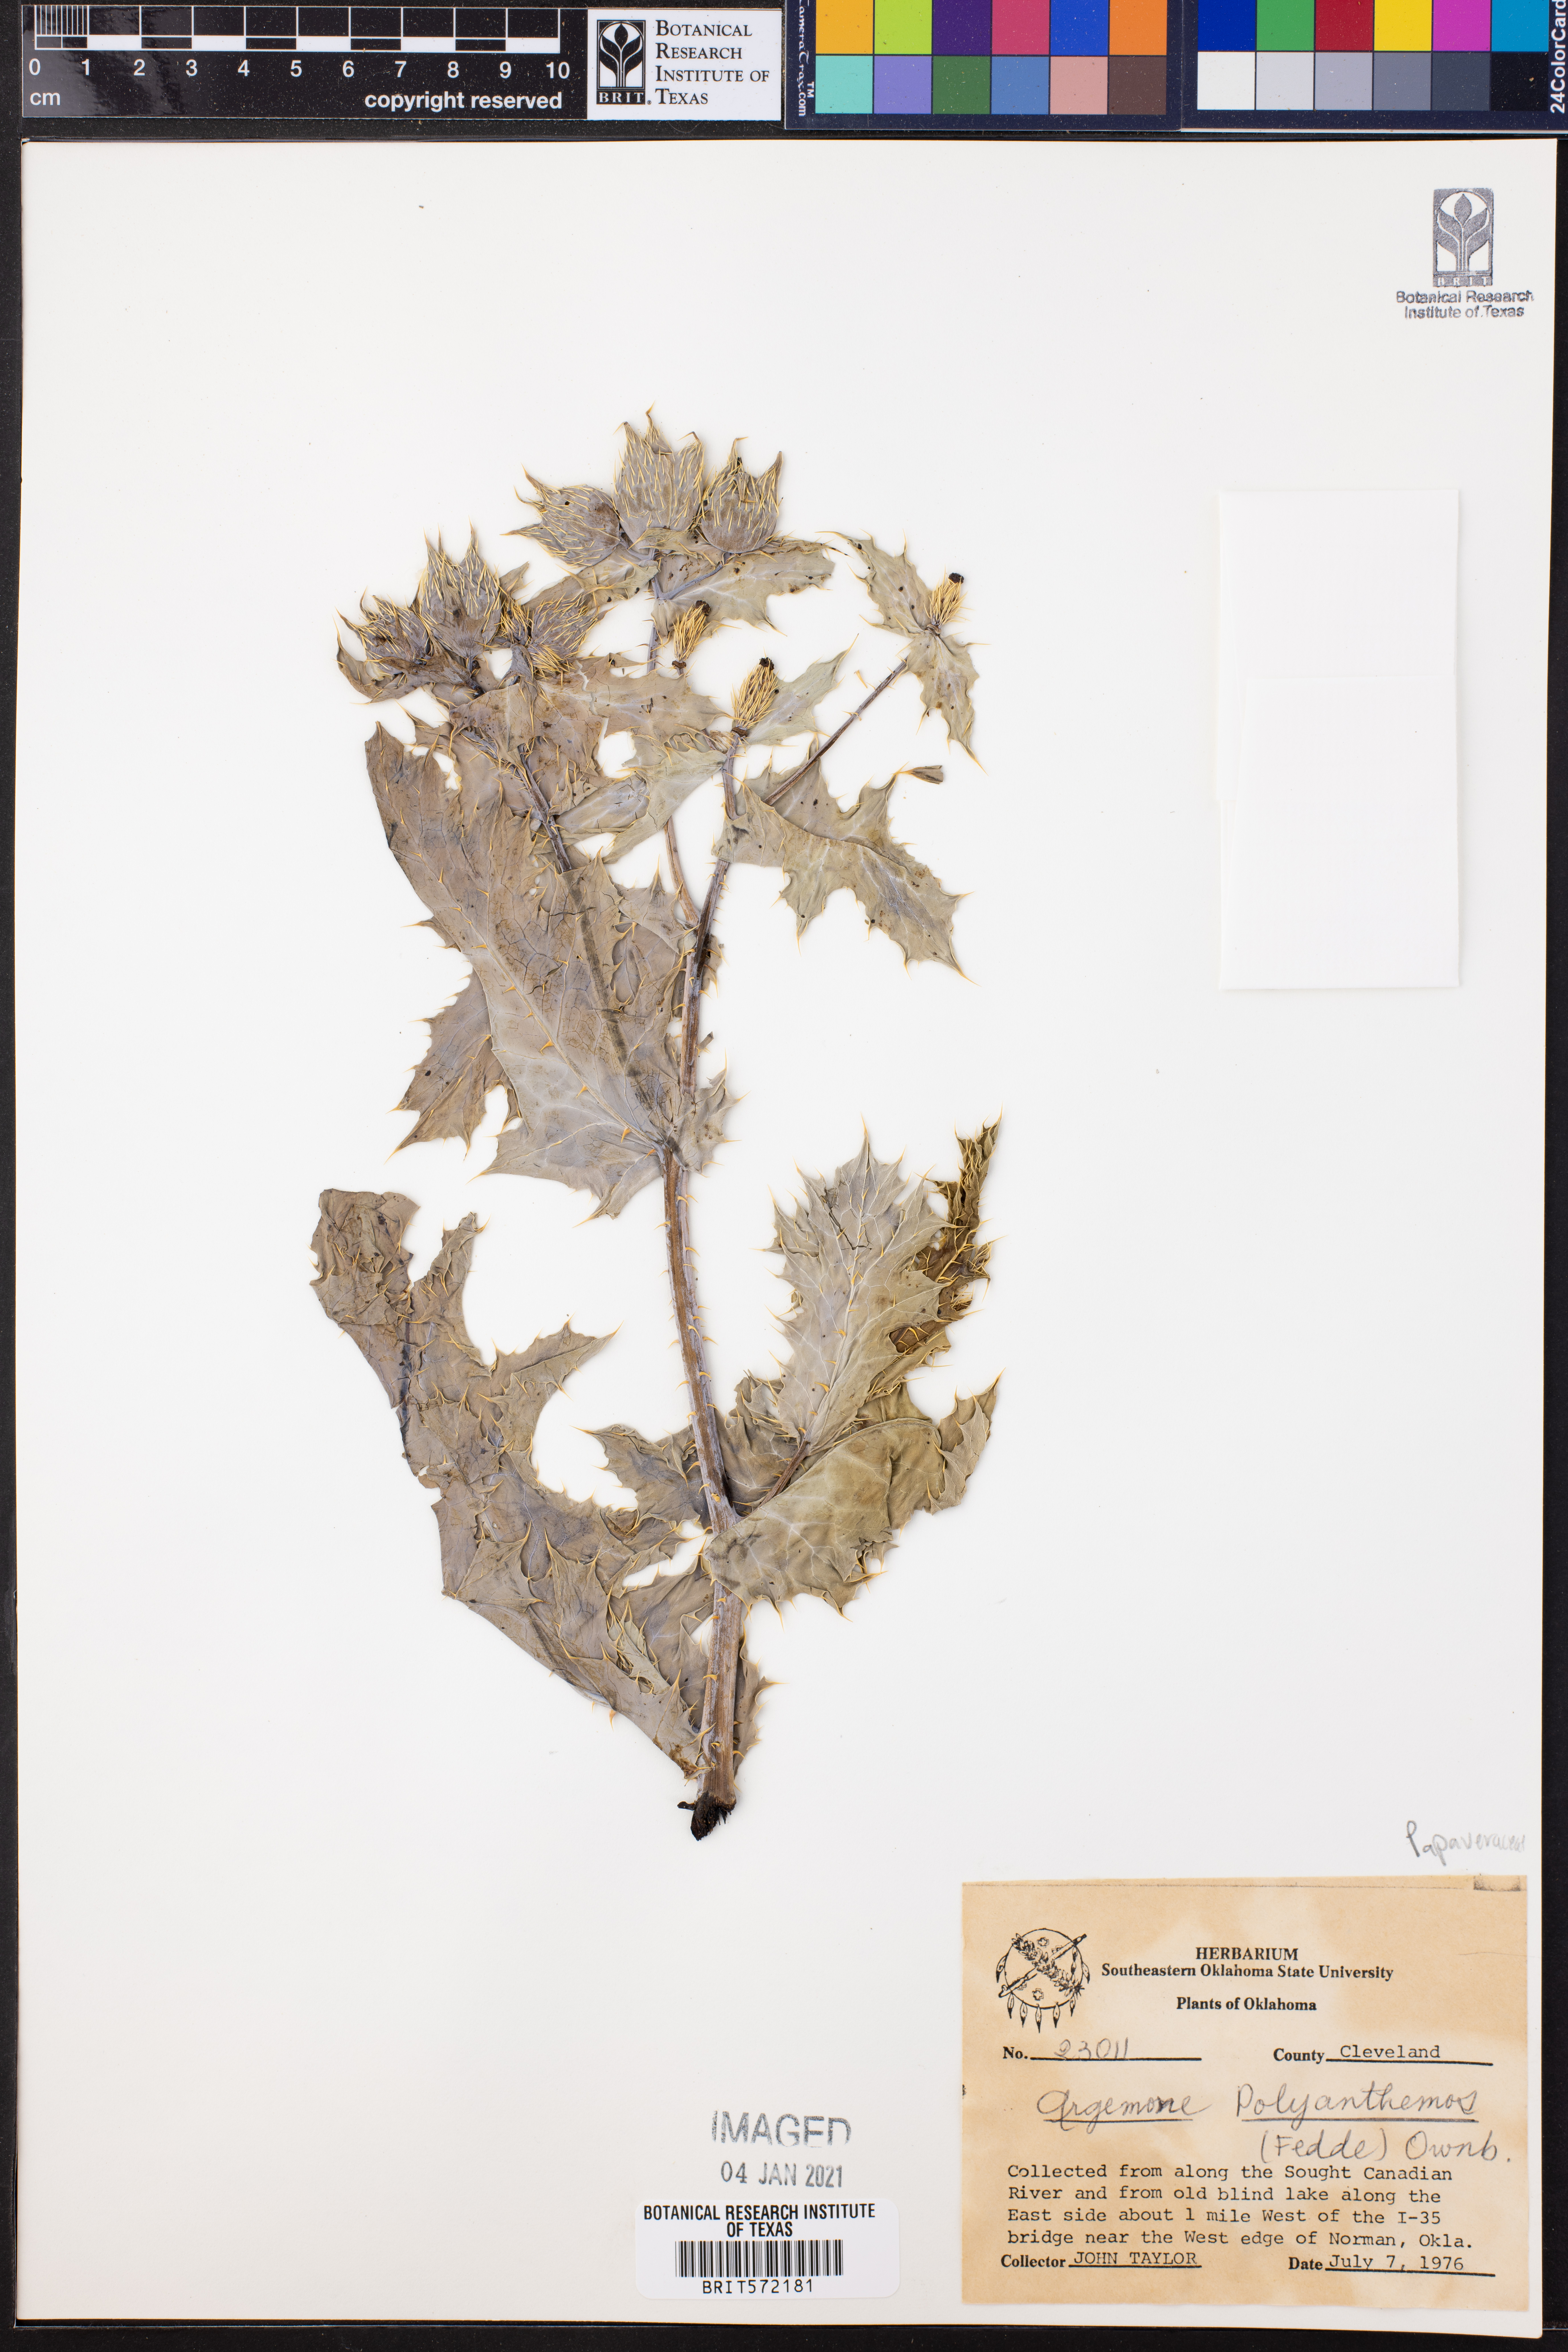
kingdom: Plantae
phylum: Tracheophyta
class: Magnoliopsida
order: Ranunculales
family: Papaveraceae
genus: Argemone
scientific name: Argemone polyanthemos
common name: Plains prickly-poppy
